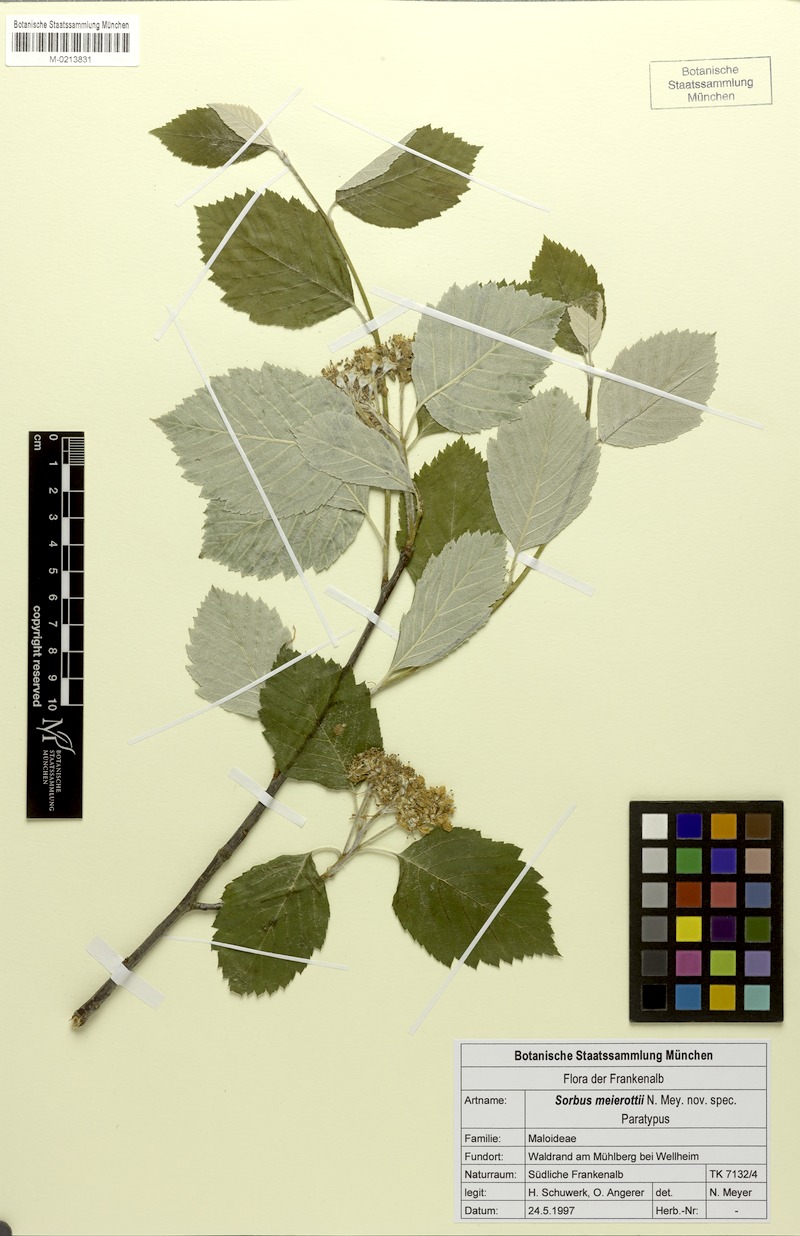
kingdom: Plantae
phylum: Tracheophyta
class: Magnoliopsida
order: Rosales
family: Rosaceae
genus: Karpatiosorbus
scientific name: Karpatiosorbus meierottii
